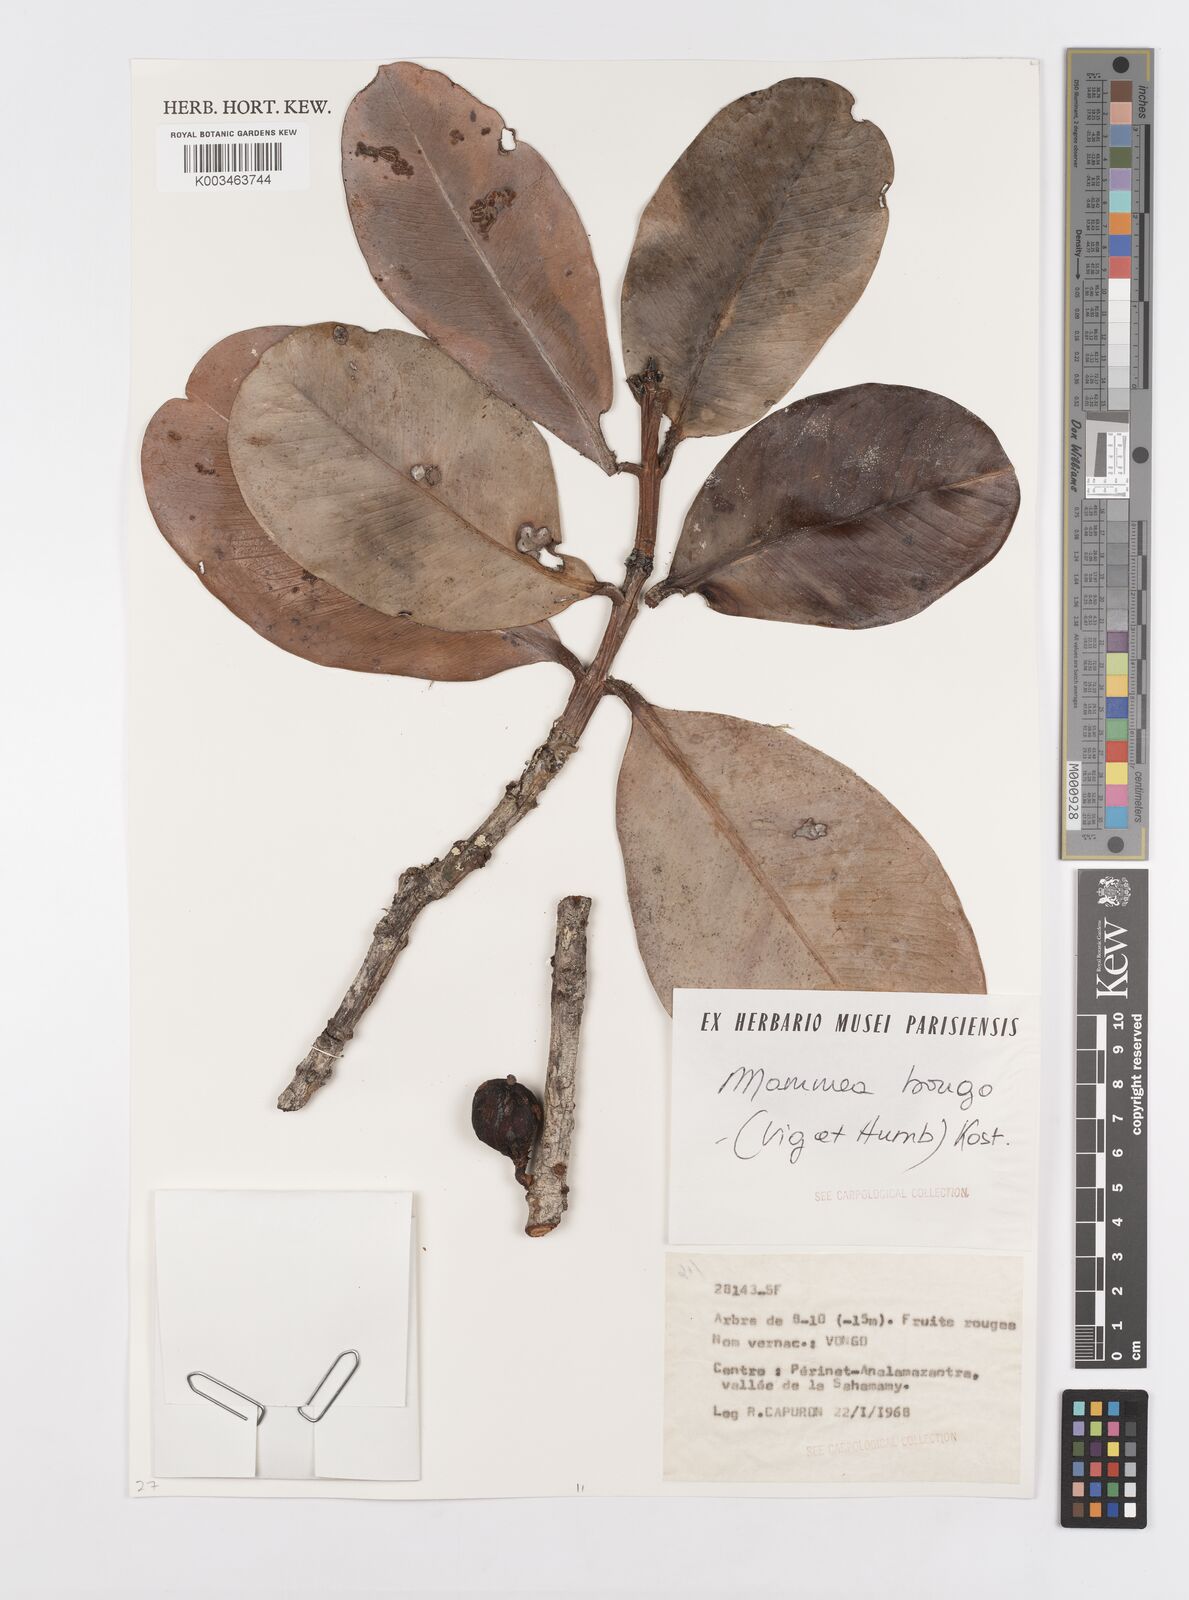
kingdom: Plantae
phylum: Tracheophyta
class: Magnoliopsida
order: Malpighiales
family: Calophyllaceae
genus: Mammea
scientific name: Mammea bongo
